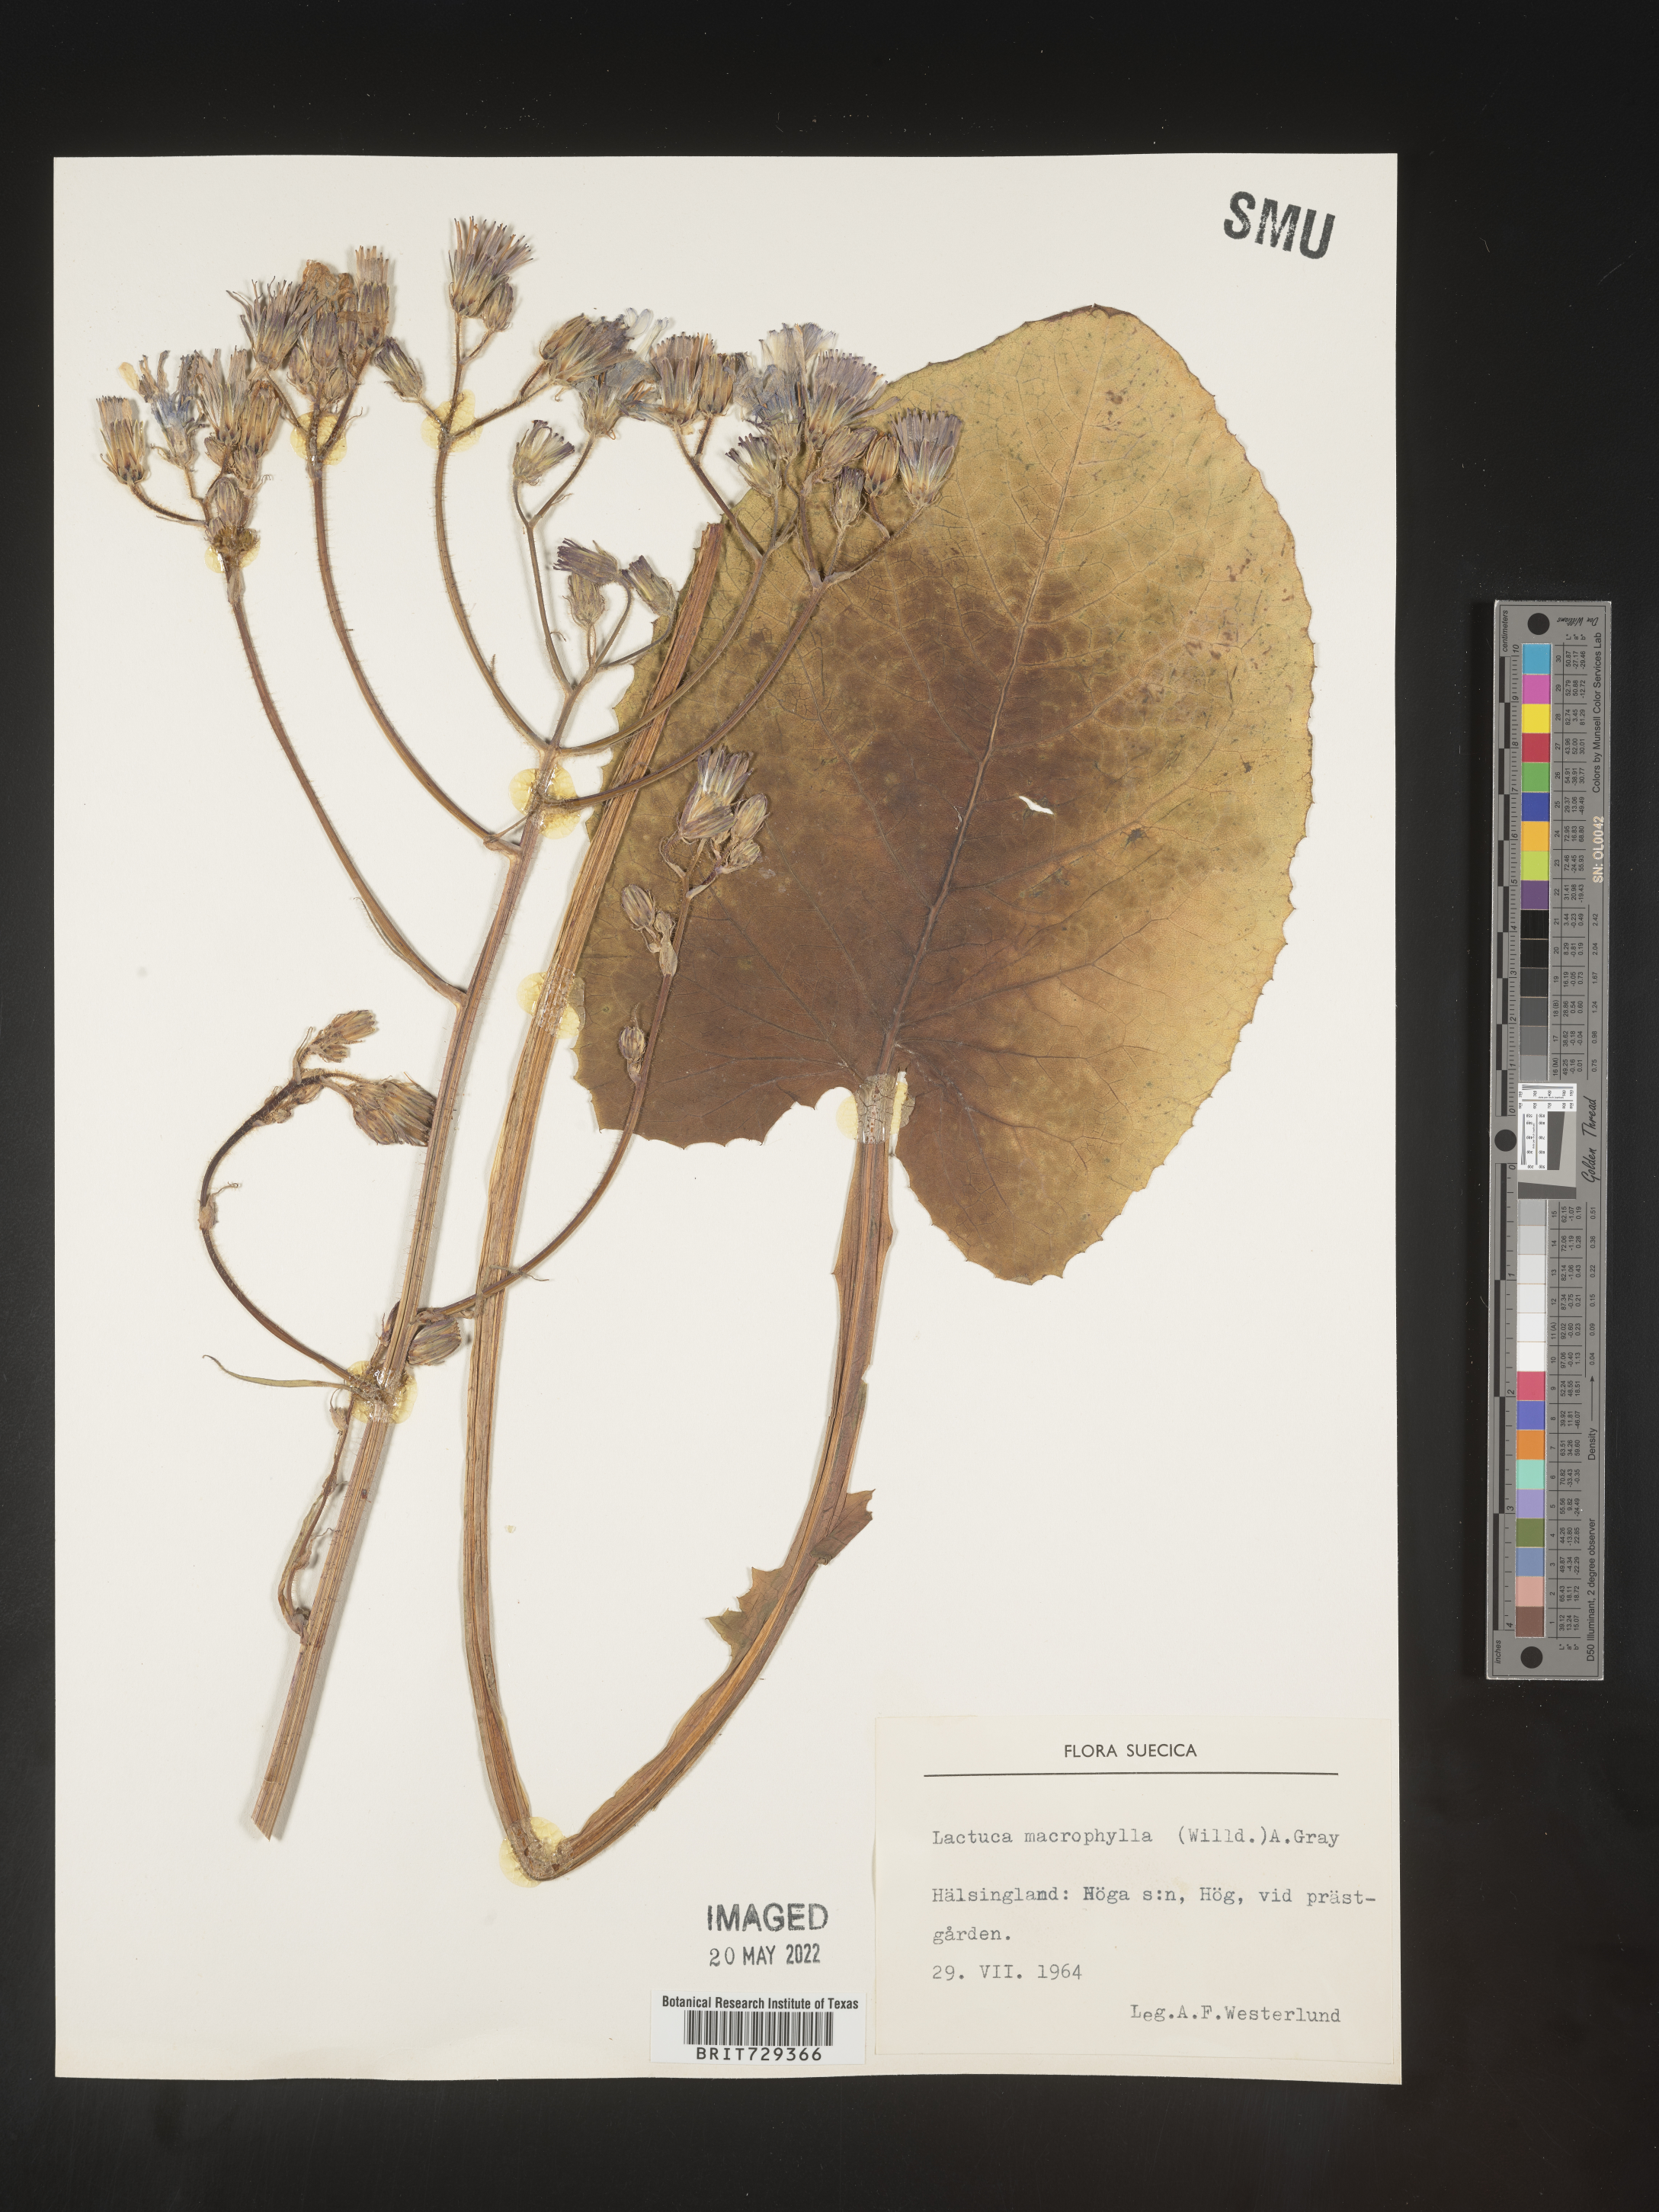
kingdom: Plantae
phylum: Tracheophyta
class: Magnoliopsida
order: Asterales
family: Asteraceae
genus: Lactuca
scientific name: Lactuca
